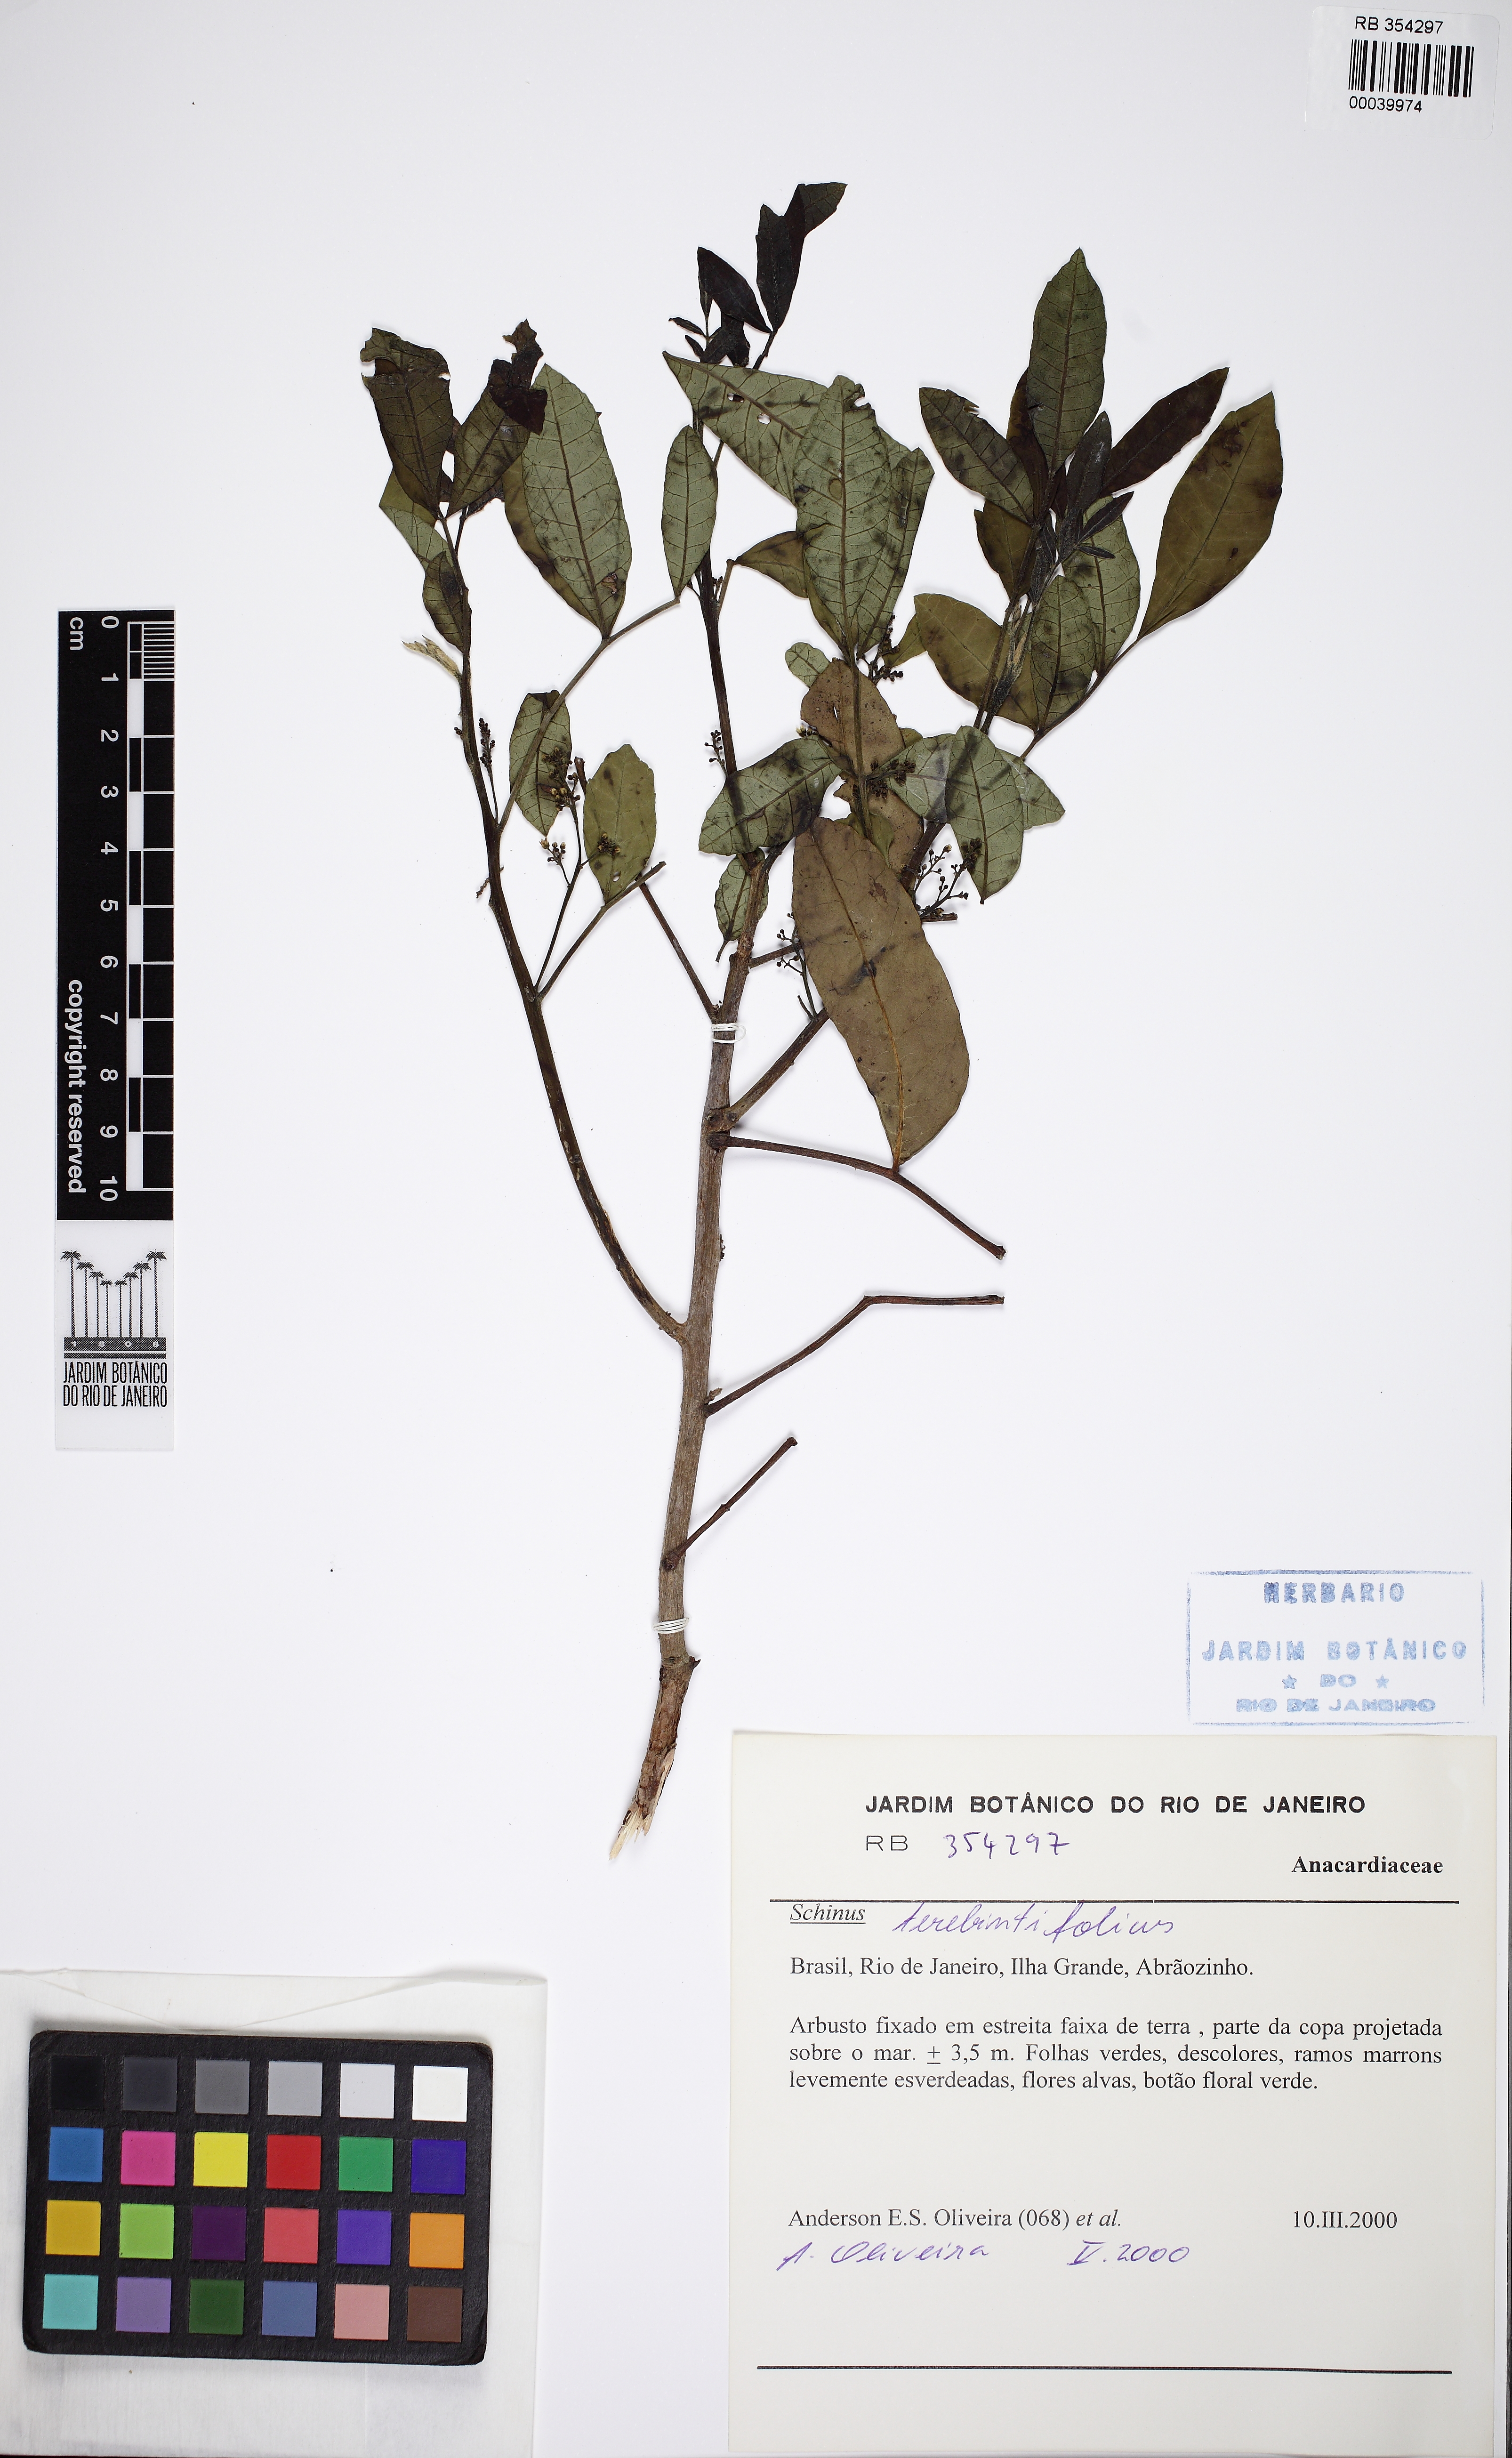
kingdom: Plantae
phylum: Tracheophyta
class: Magnoliopsida
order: Sapindales
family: Anacardiaceae
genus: Schinus
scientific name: Schinus terebinthifolia
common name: Brazilian peppertree
